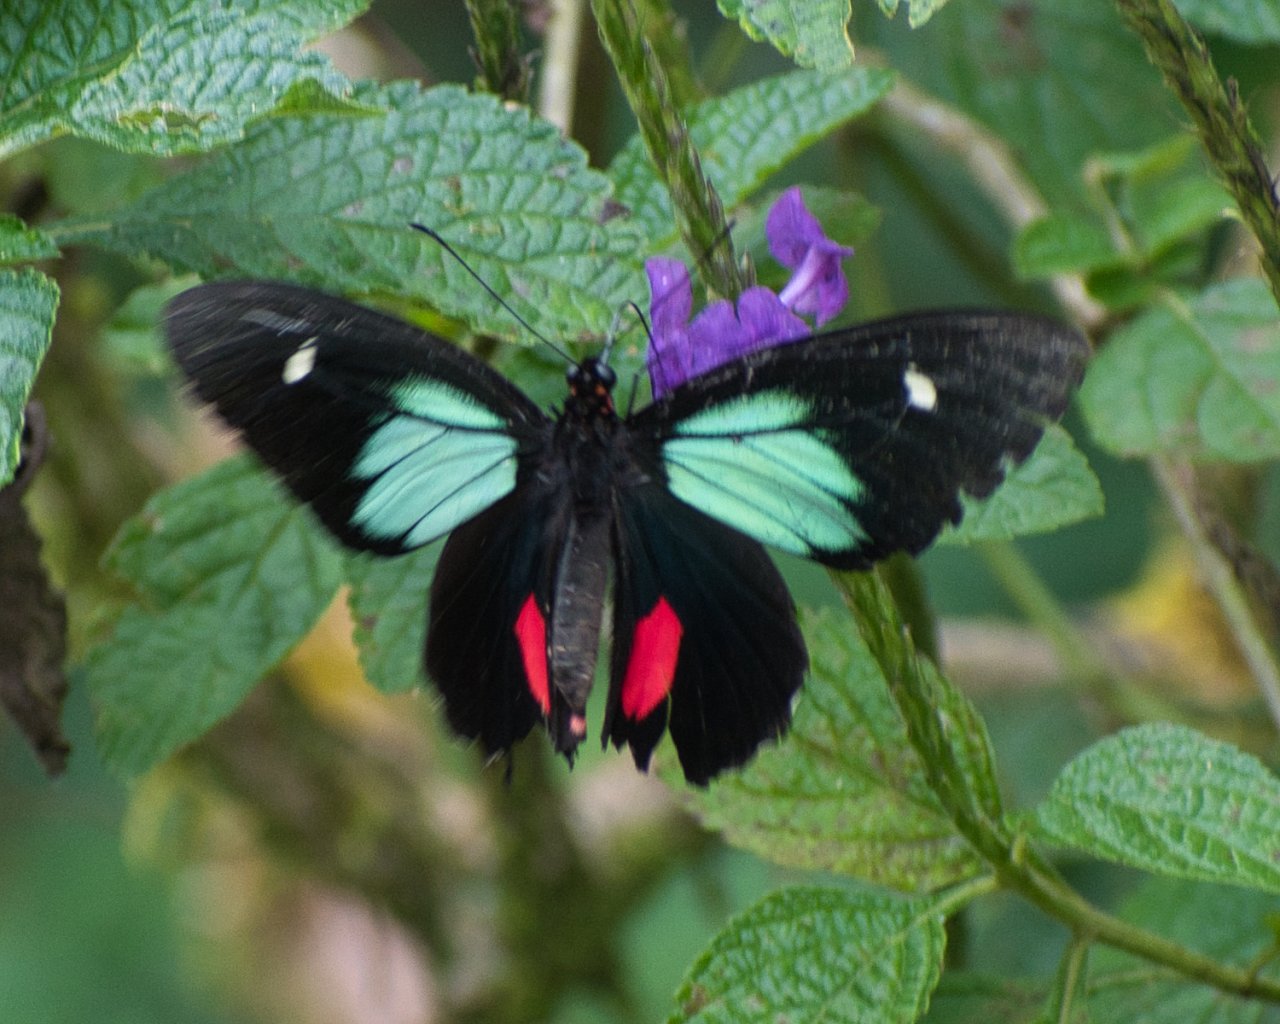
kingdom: Animalia
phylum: Arthropoda
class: Insecta
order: Lepidoptera
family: Papilionidae
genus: Parides
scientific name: Parides childrenae
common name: Green-celled Cattleheart
